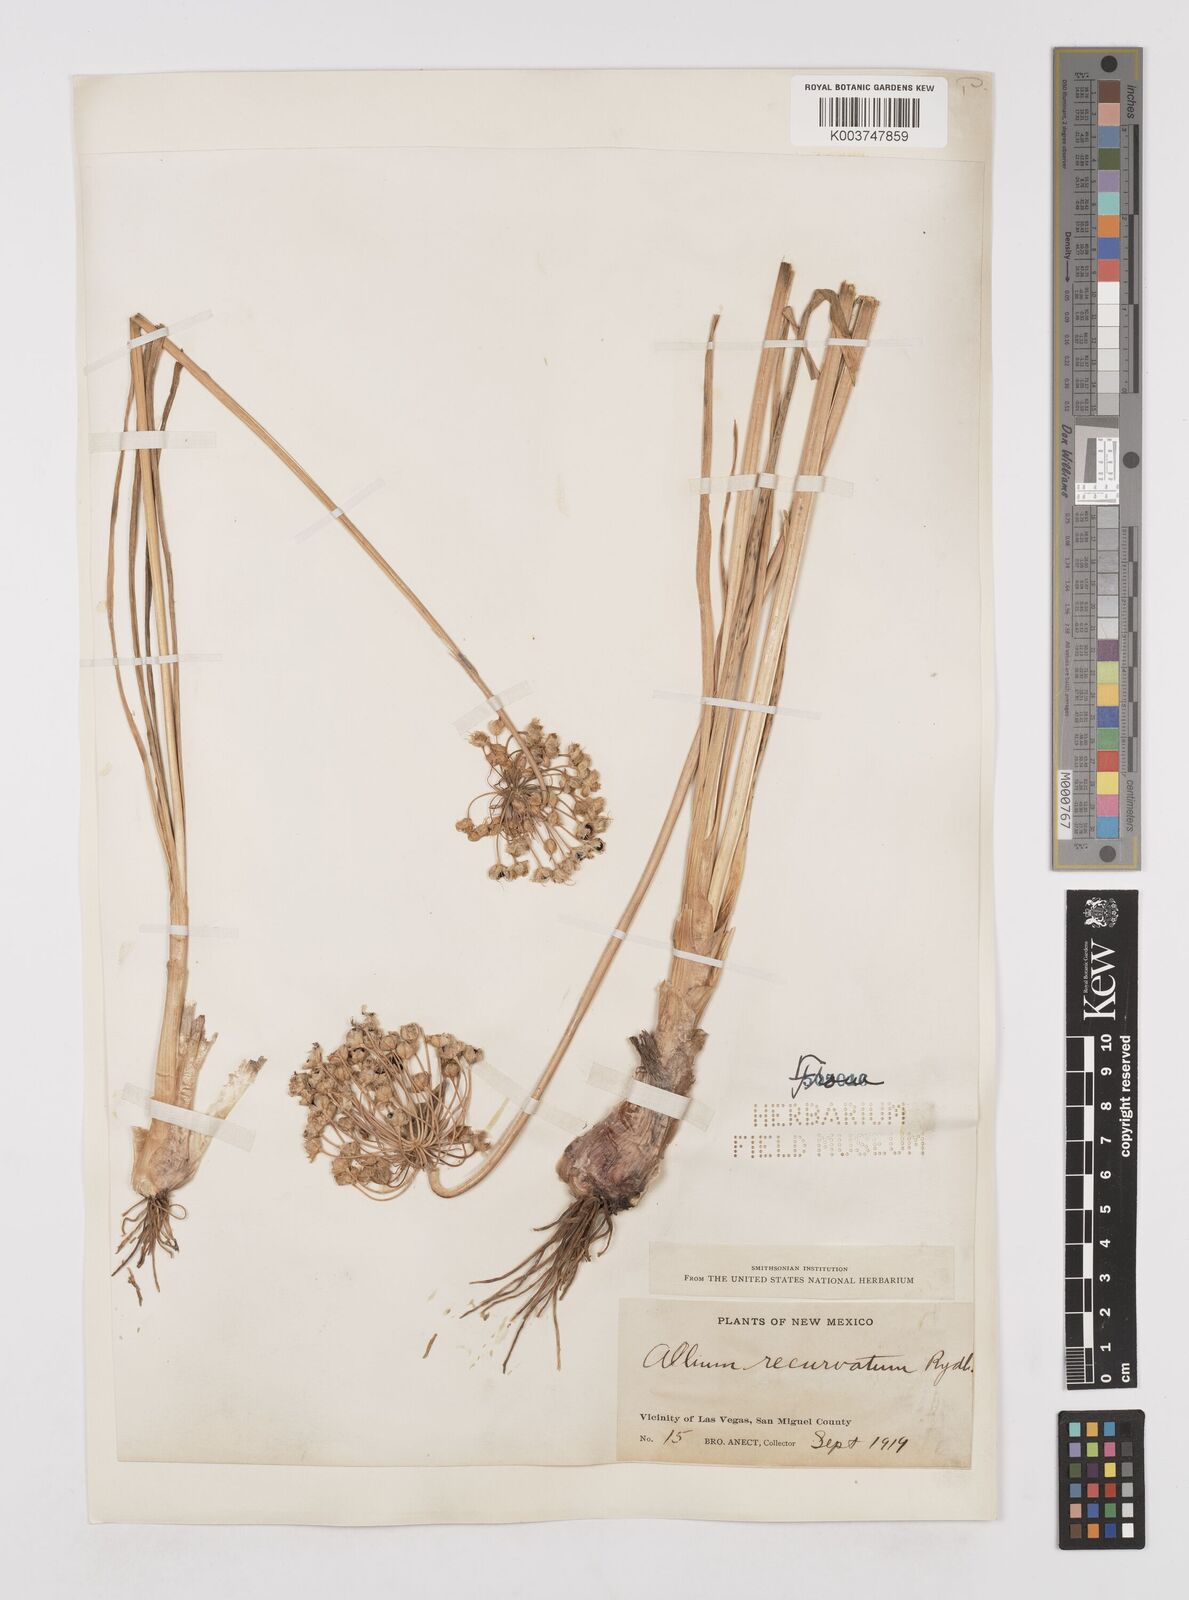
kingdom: Plantae
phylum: Tracheophyta
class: Liliopsida
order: Asparagales
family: Amaryllidaceae
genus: Allium
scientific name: Allium cernuum
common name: Nodding onion
